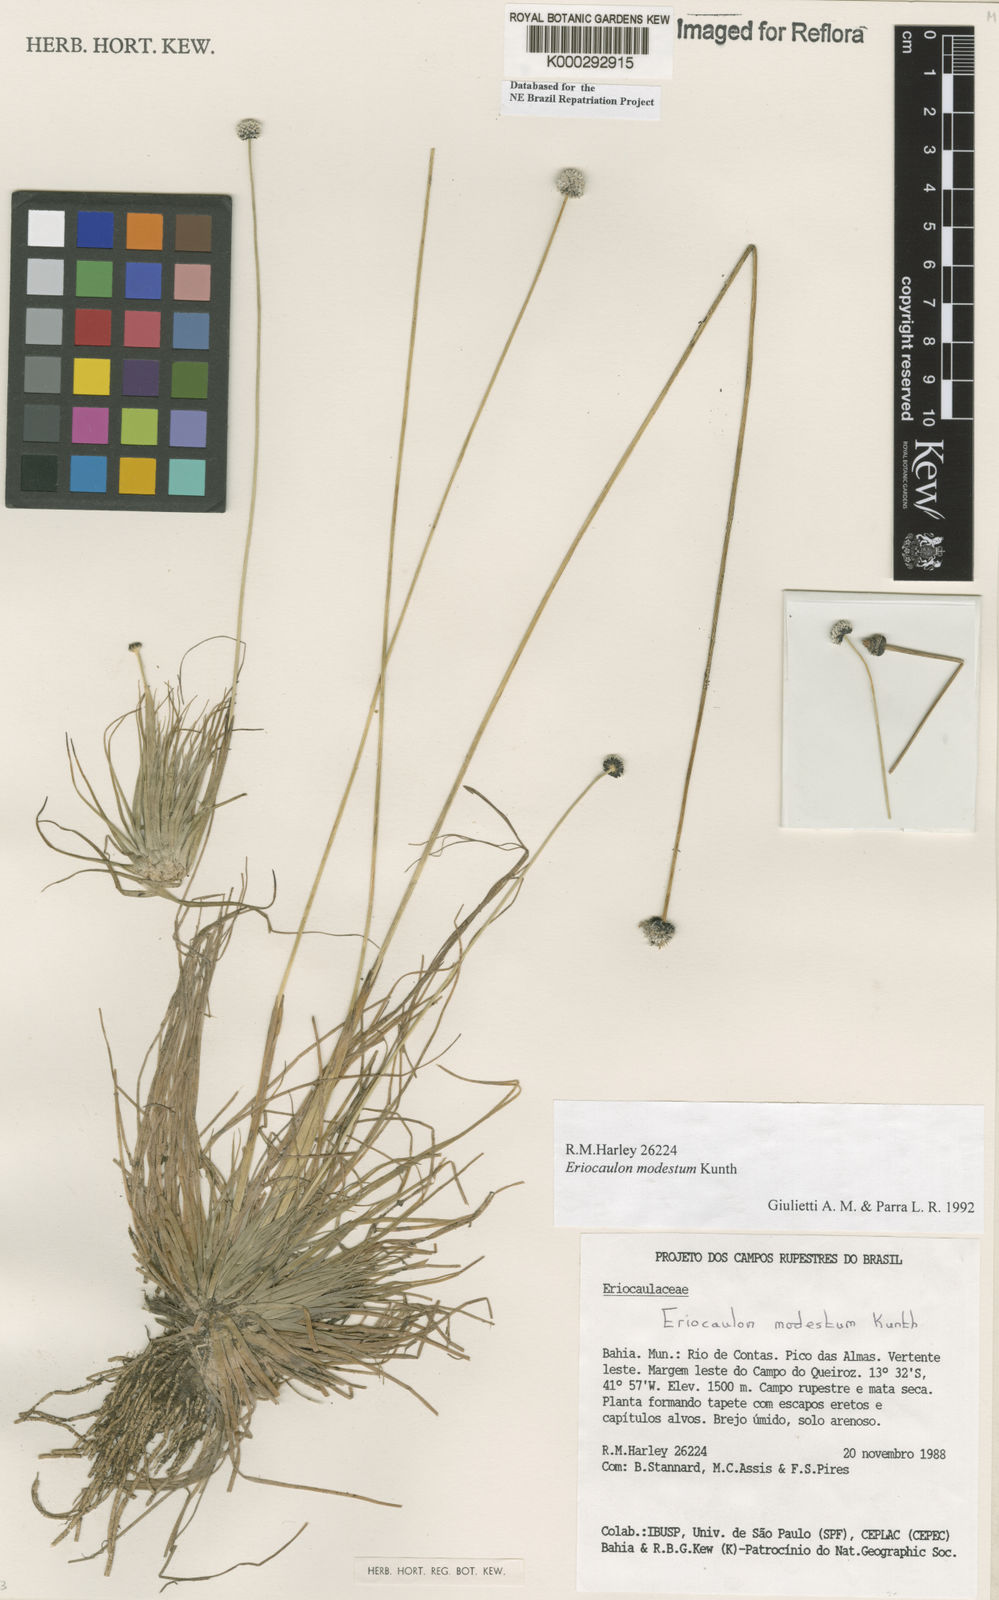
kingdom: Plantae
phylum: Tracheophyta
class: Liliopsida
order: Poales
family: Eriocaulaceae
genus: Eriocaulon
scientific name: Eriocaulon modestum
